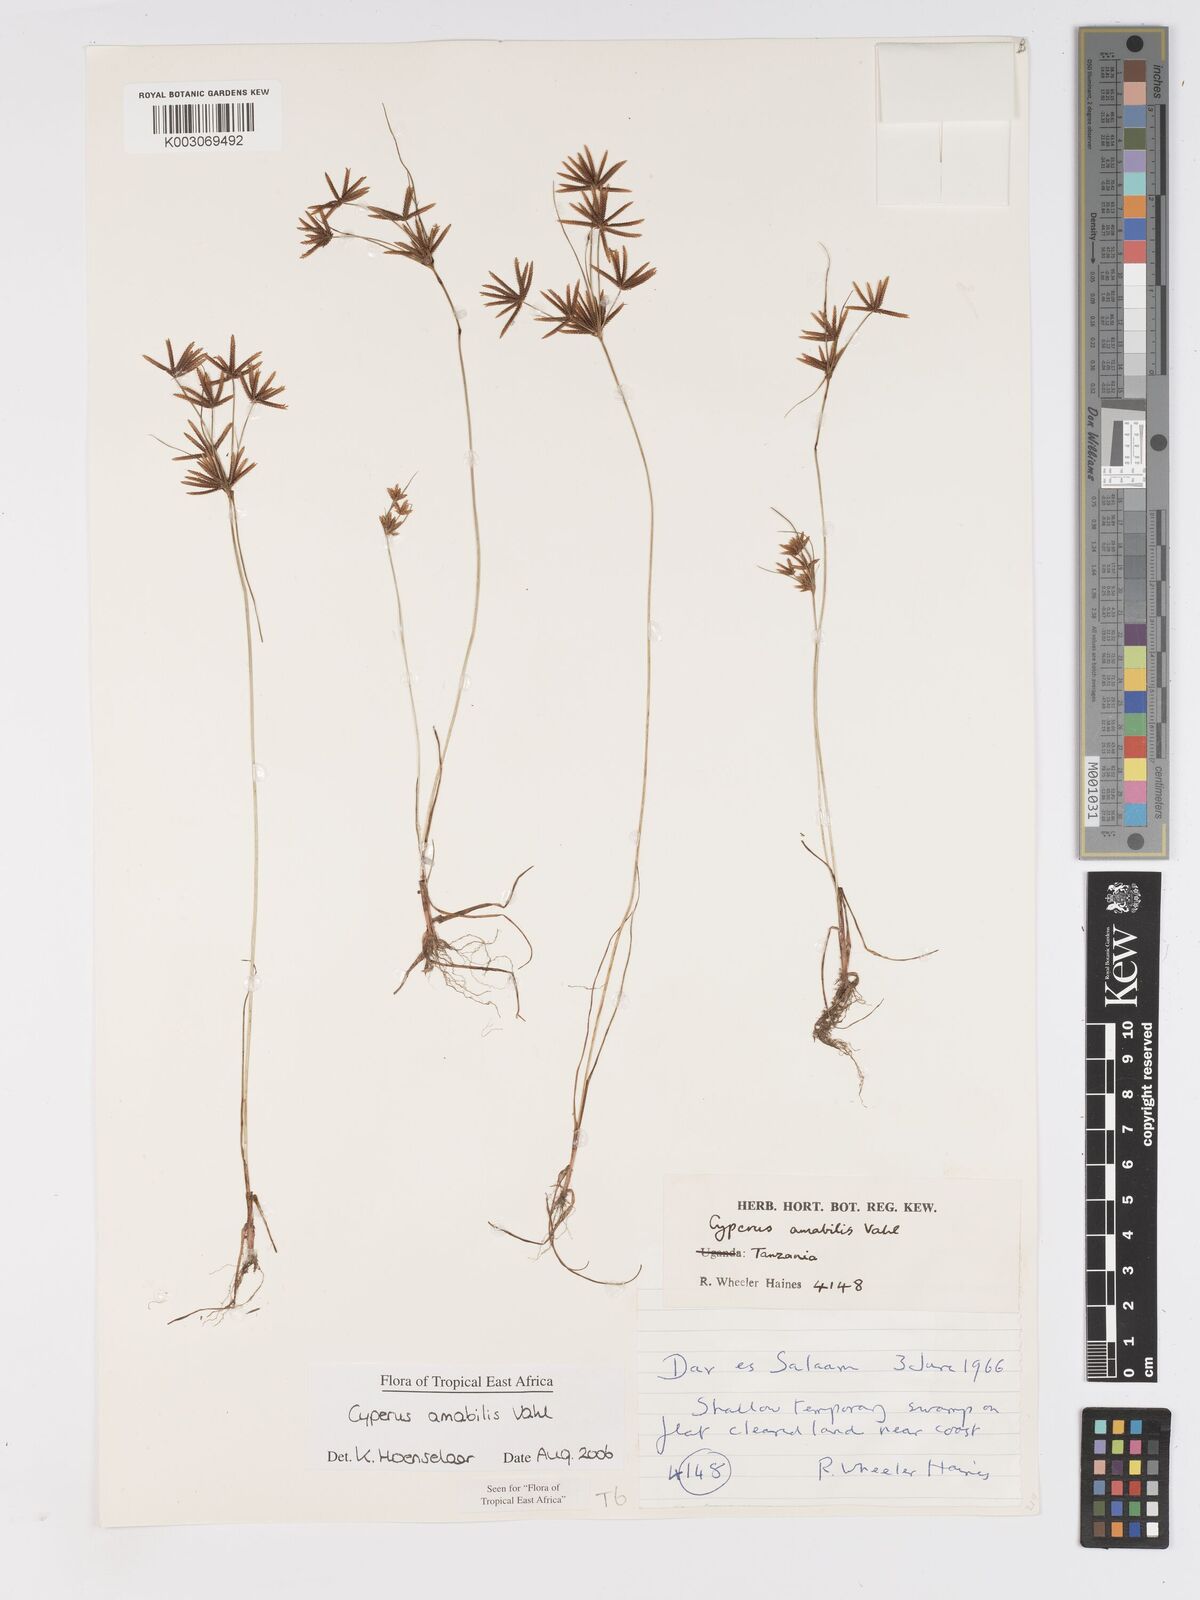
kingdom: Plantae
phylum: Tracheophyta
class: Liliopsida
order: Poales
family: Cyperaceae
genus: Cyperus
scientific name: Cyperus amabilis
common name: Foothill flat sedge
